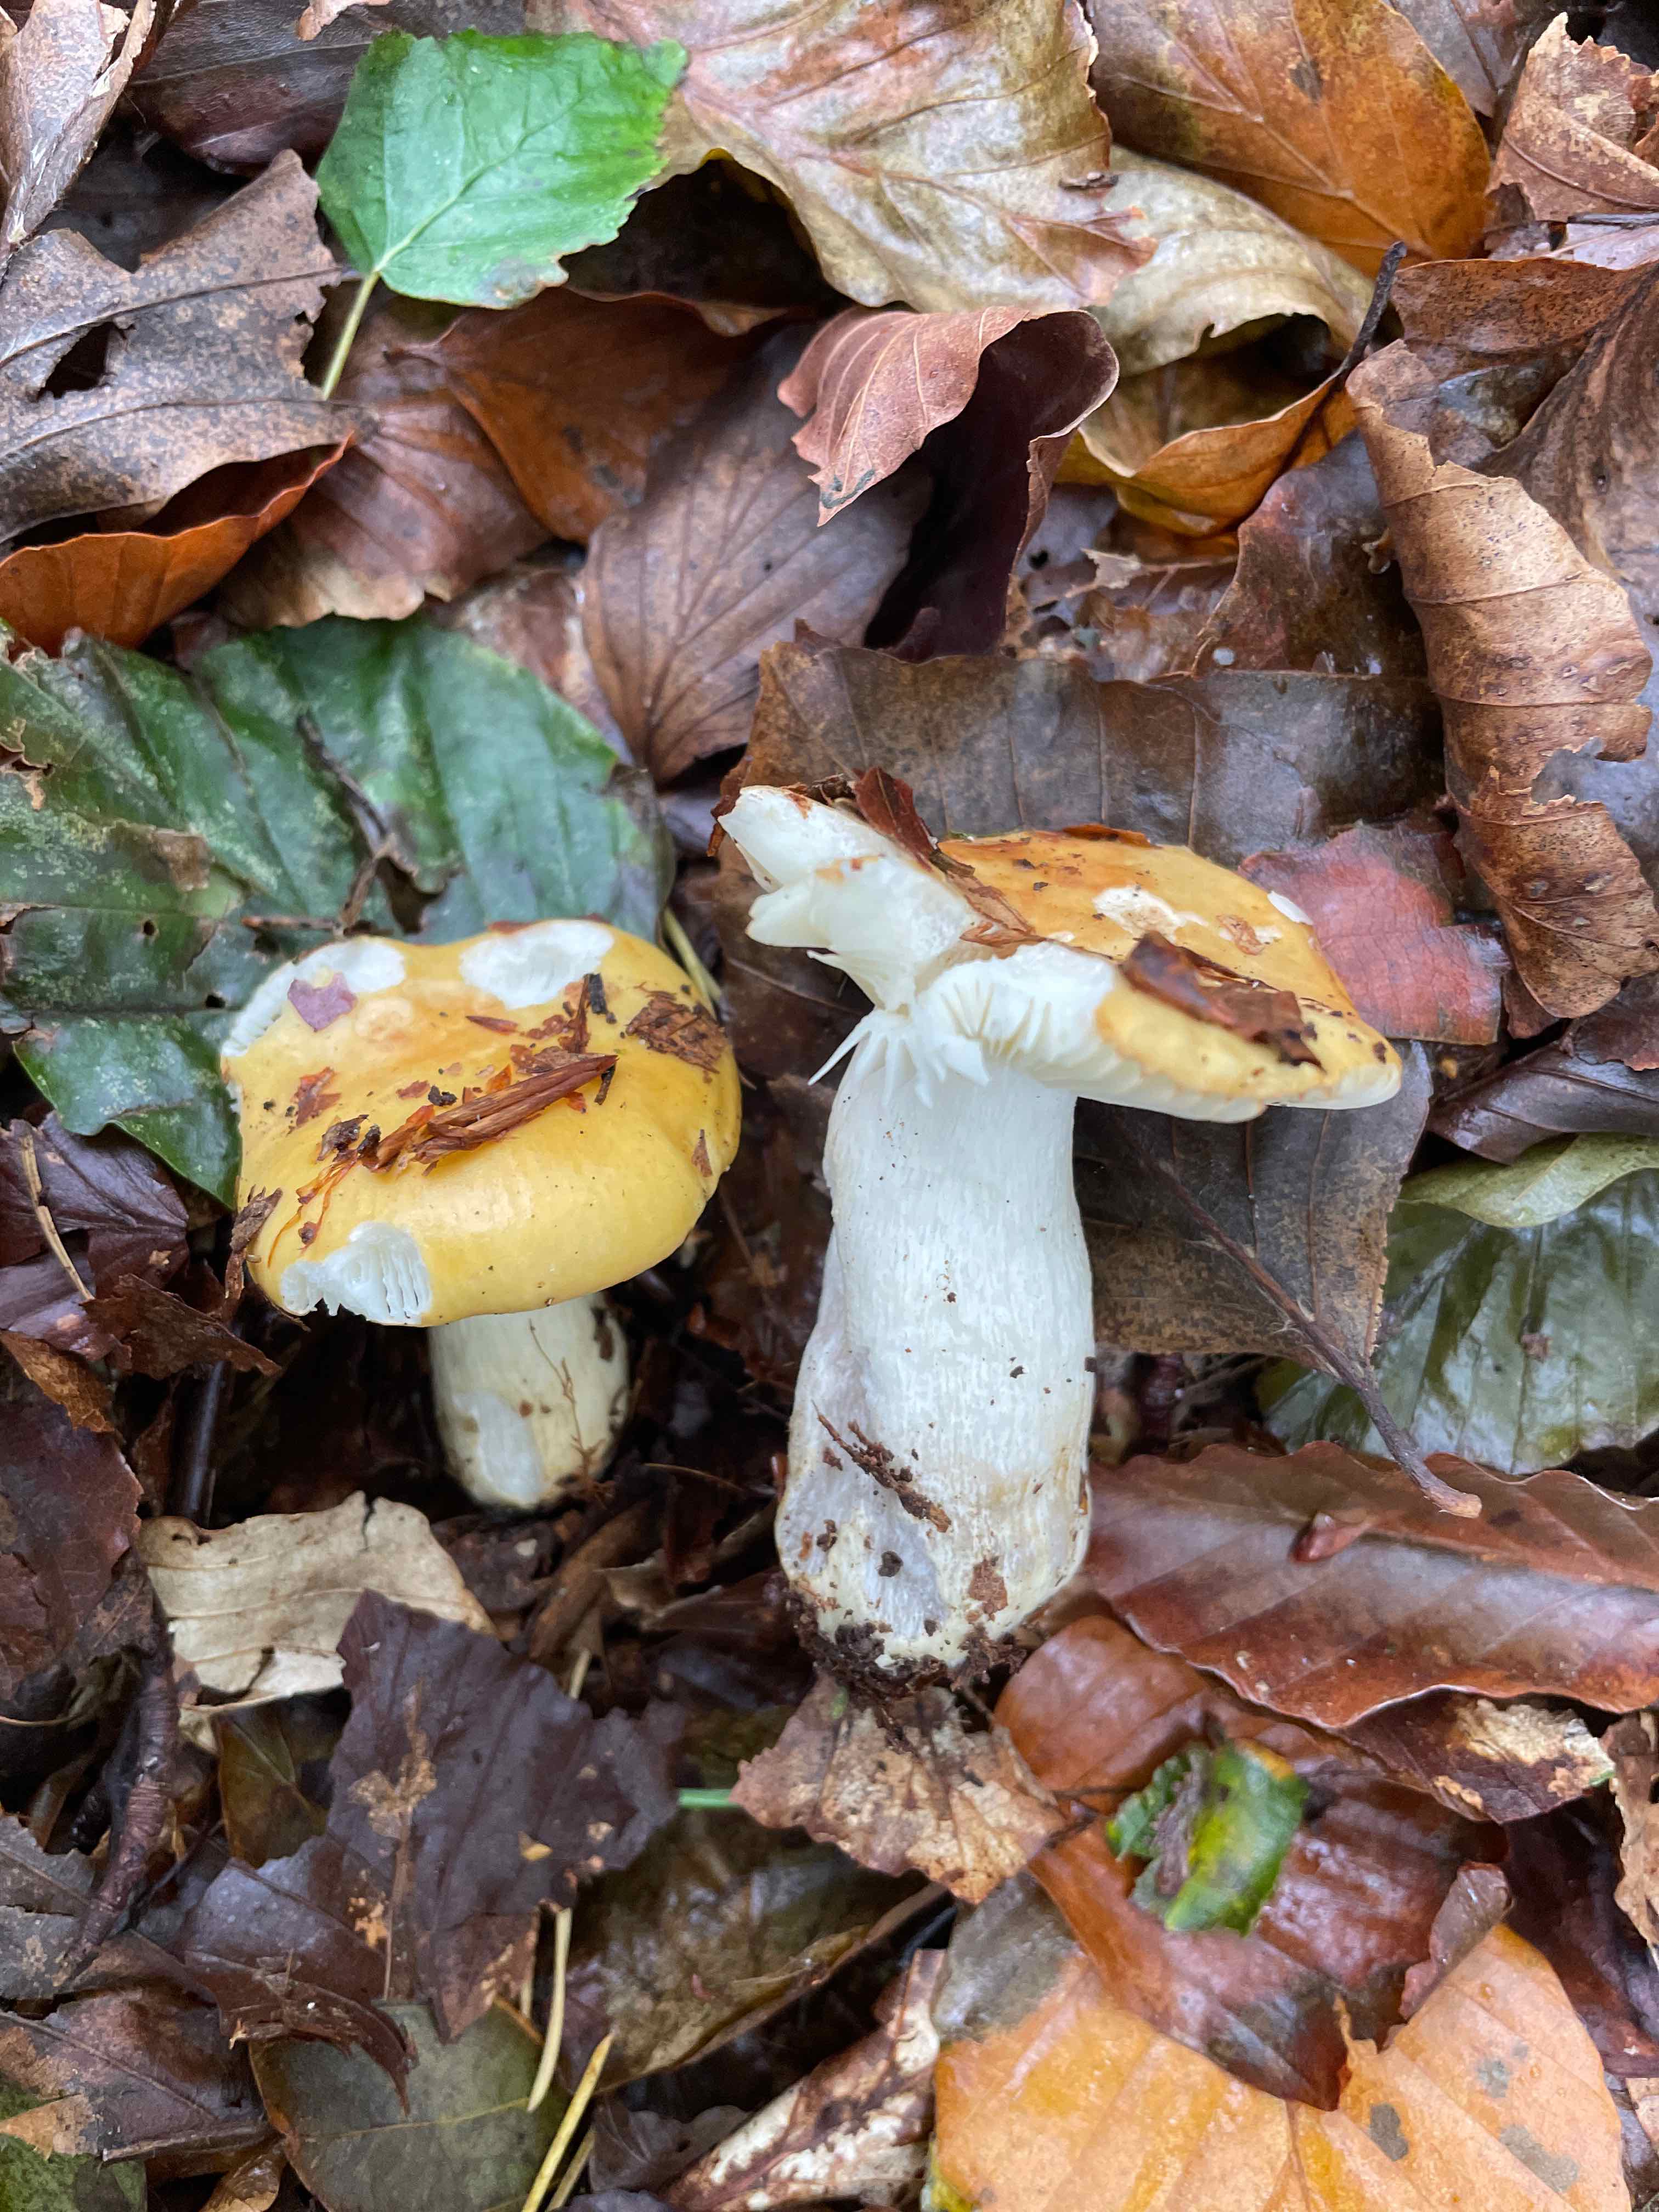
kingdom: Fungi
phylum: Basidiomycota
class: Agaricomycetes
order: Russulales
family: Russulaceae
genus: Russula
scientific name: Russula ochroleuca
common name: okkergul skørhat
